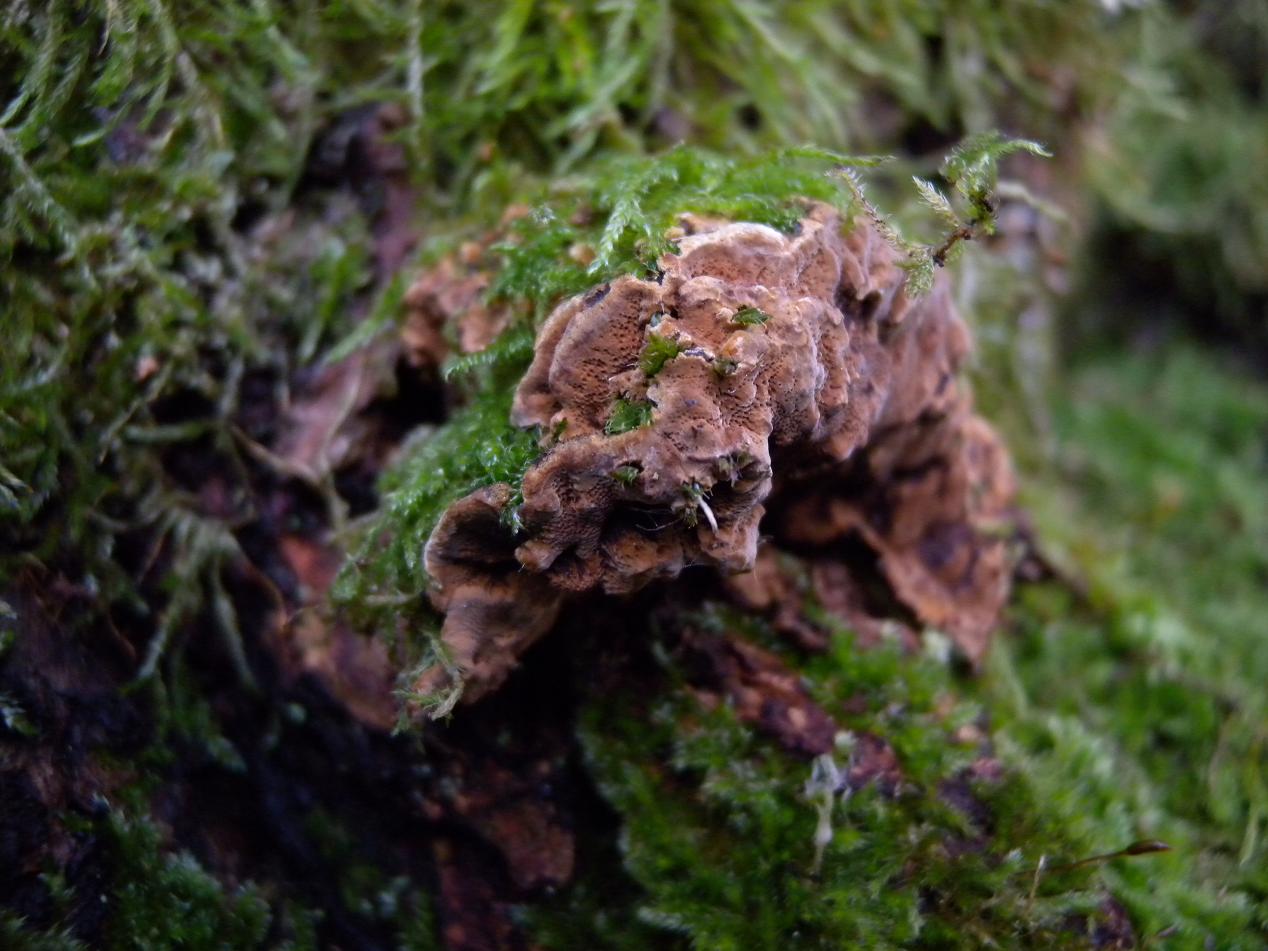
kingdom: Fungi
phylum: Basidiomycota
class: Agaricomycetes
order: Hymenochaetales
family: Hymenochaetaceae
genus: Phellinopsis
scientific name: Phellinopsis conchata
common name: pile-ildporesvamp
